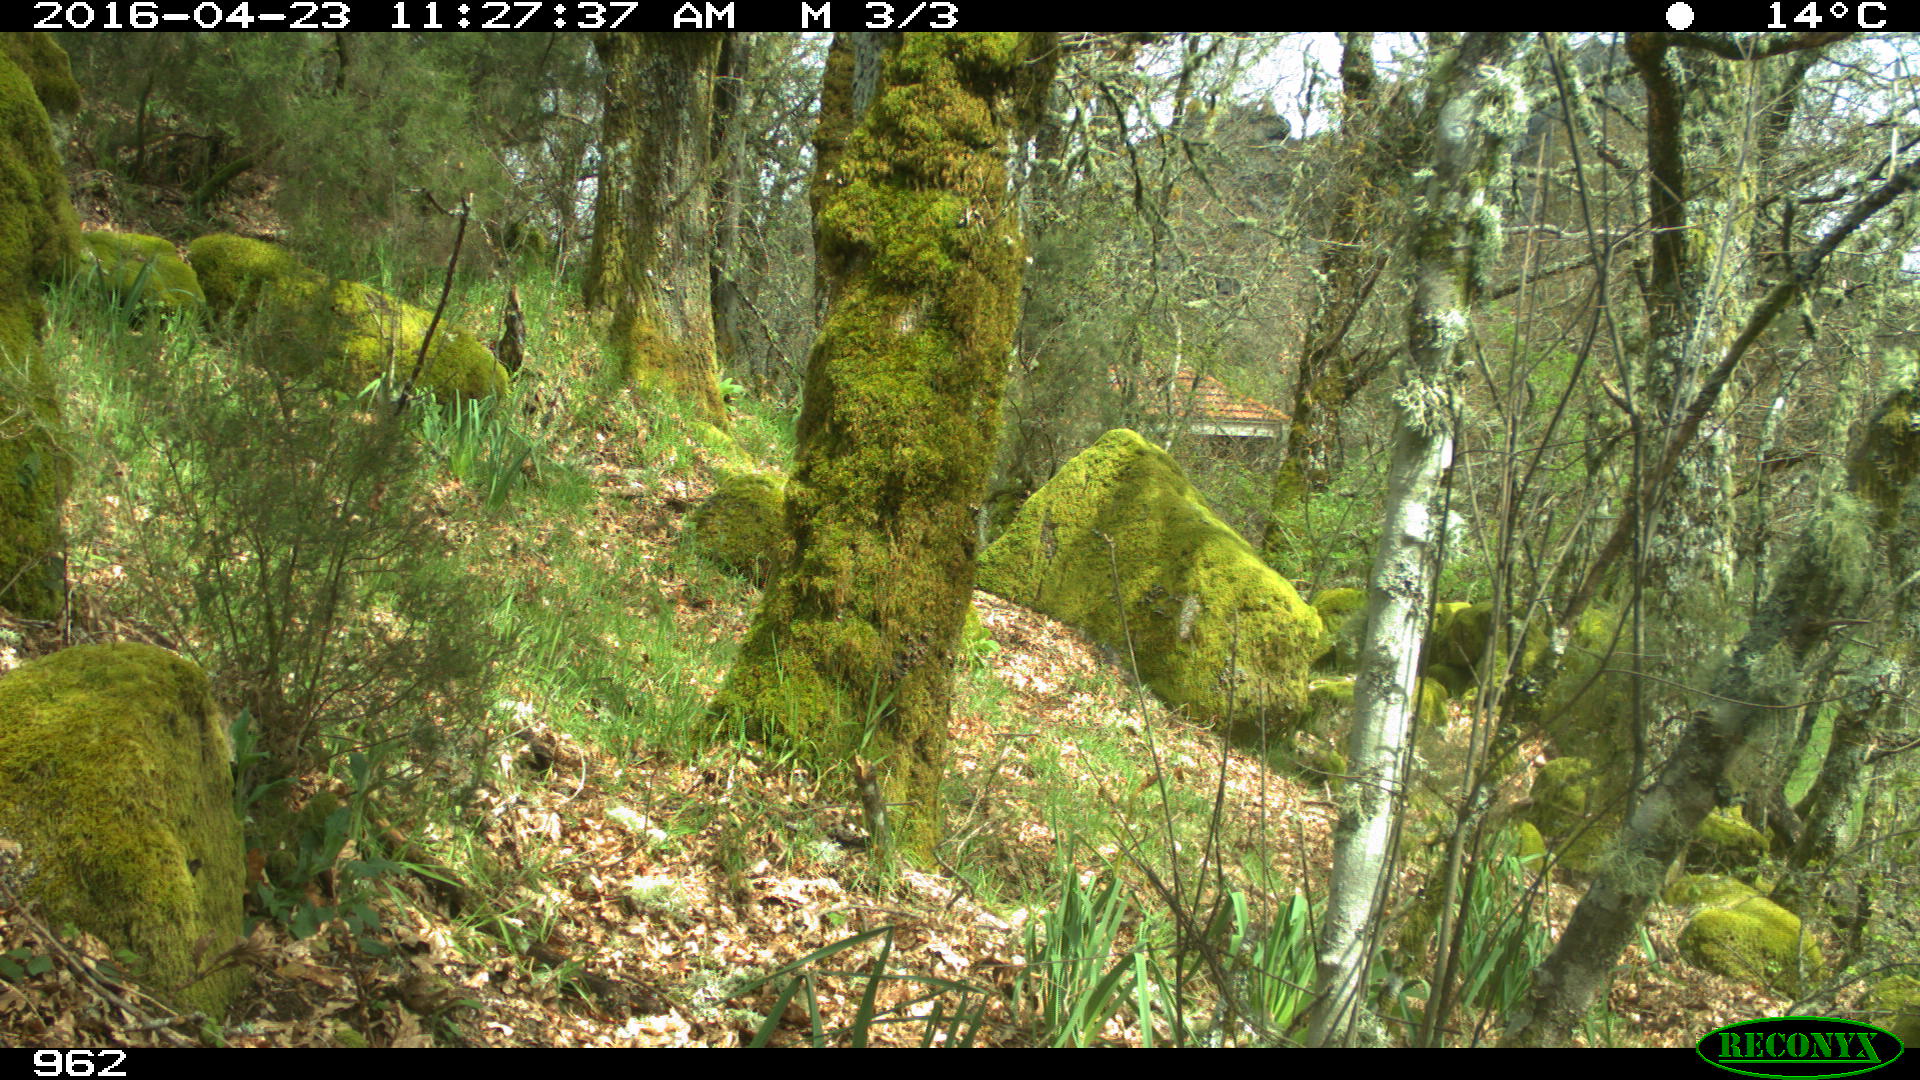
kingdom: Animalia
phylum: Chordata
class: Mammalia
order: Carnivora
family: Canidae
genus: Canis
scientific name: Canis lupus
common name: Gray wolf
